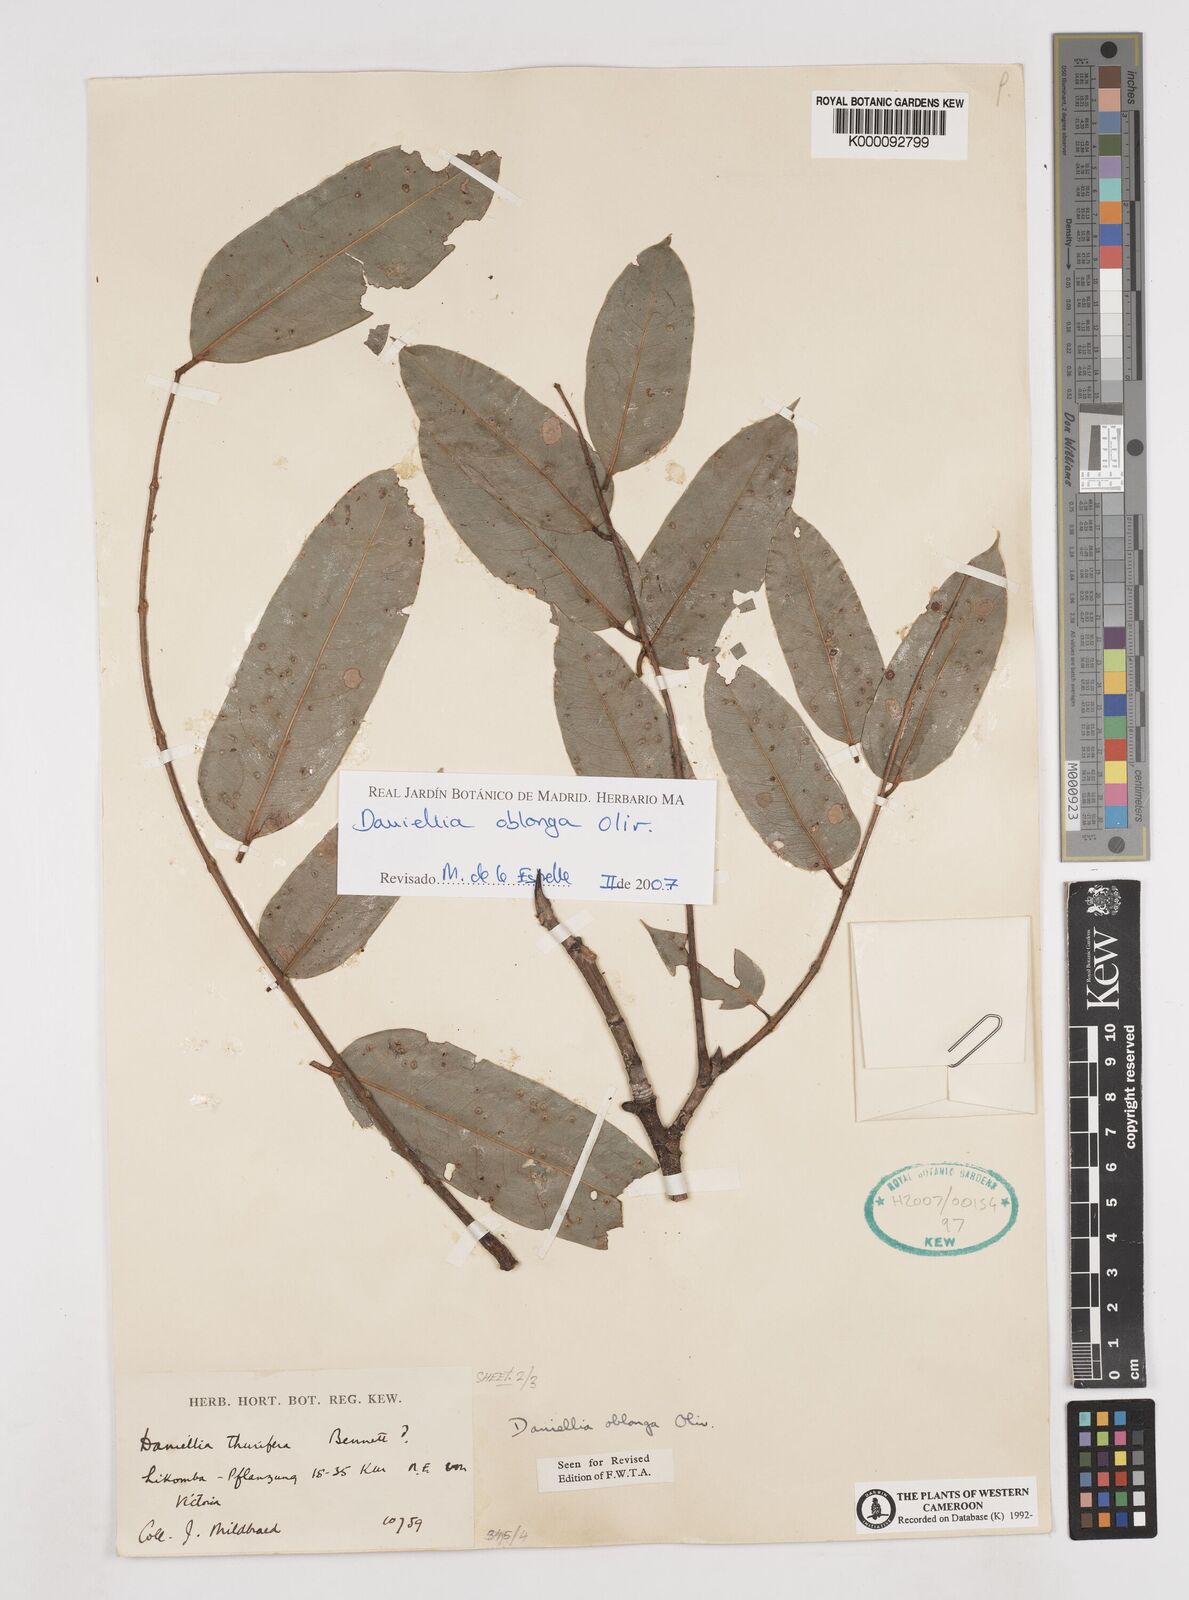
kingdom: Plantae
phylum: Tracheophyta
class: Magnoliopsida
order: Fabales
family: Fabaceae
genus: Daniellia
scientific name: Daniellia oblonga
